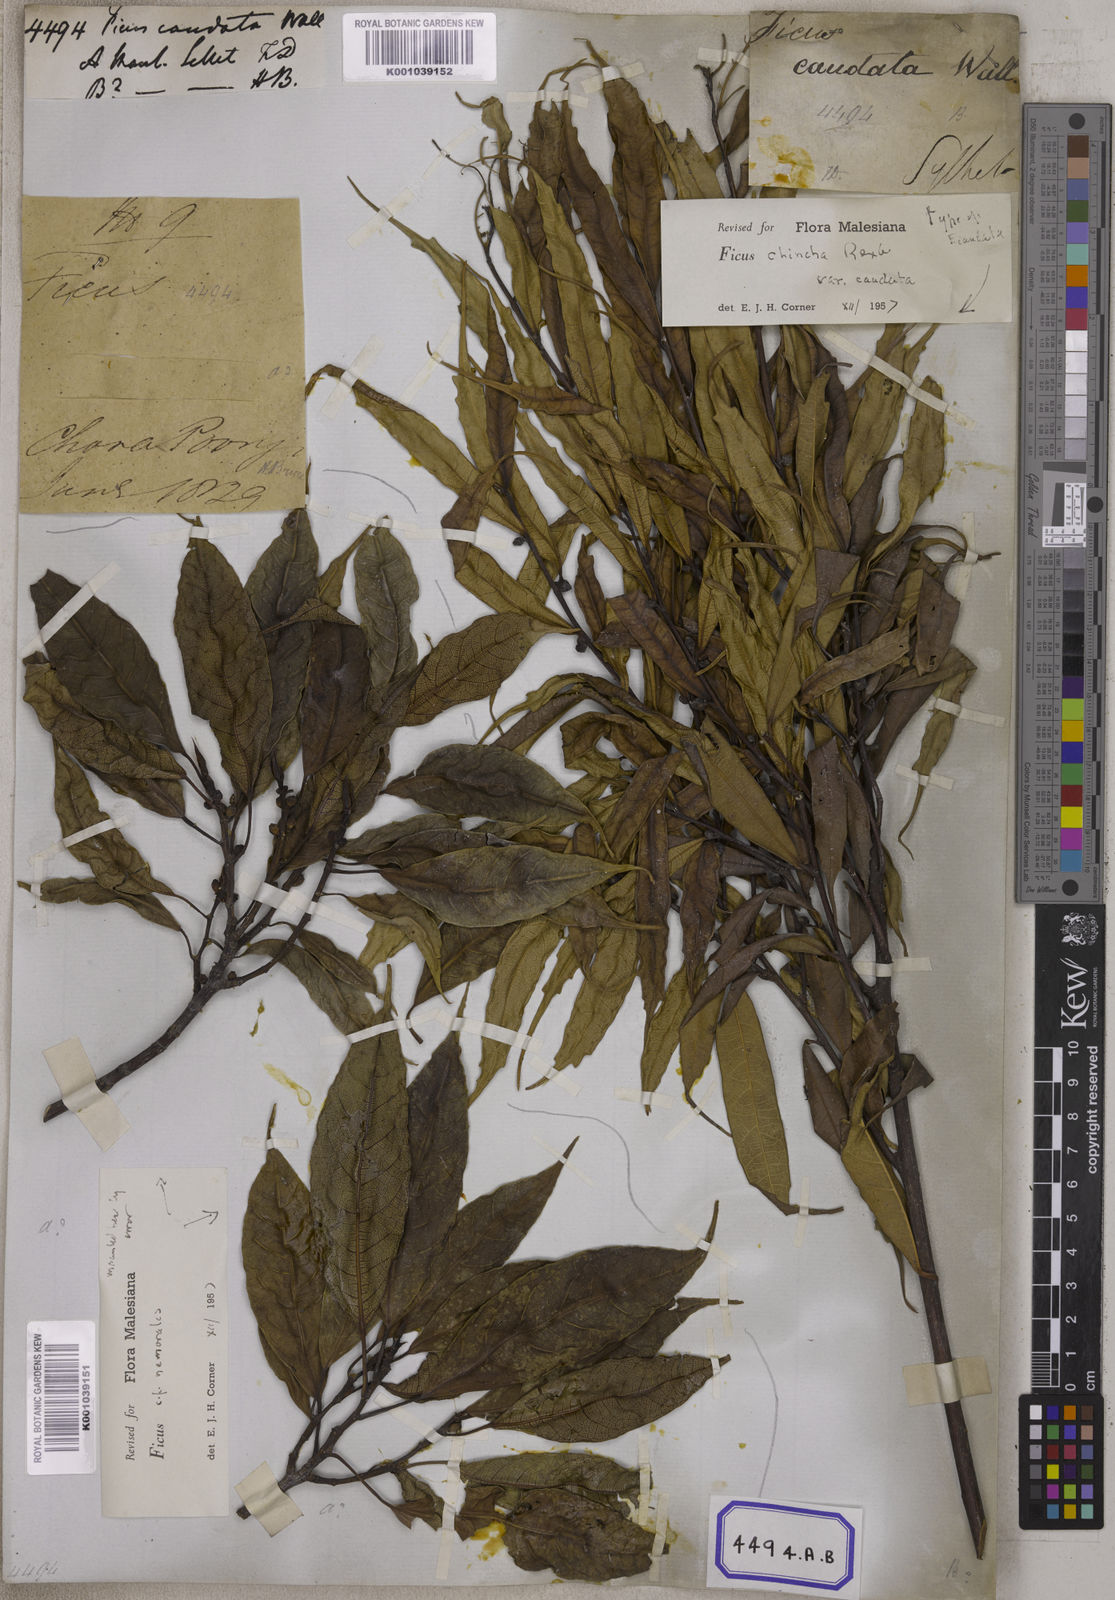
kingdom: Plantae
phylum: Tracheophyta
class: Magnoliopsida
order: Rosales
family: Moraceae
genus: Ficus
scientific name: Ficus
